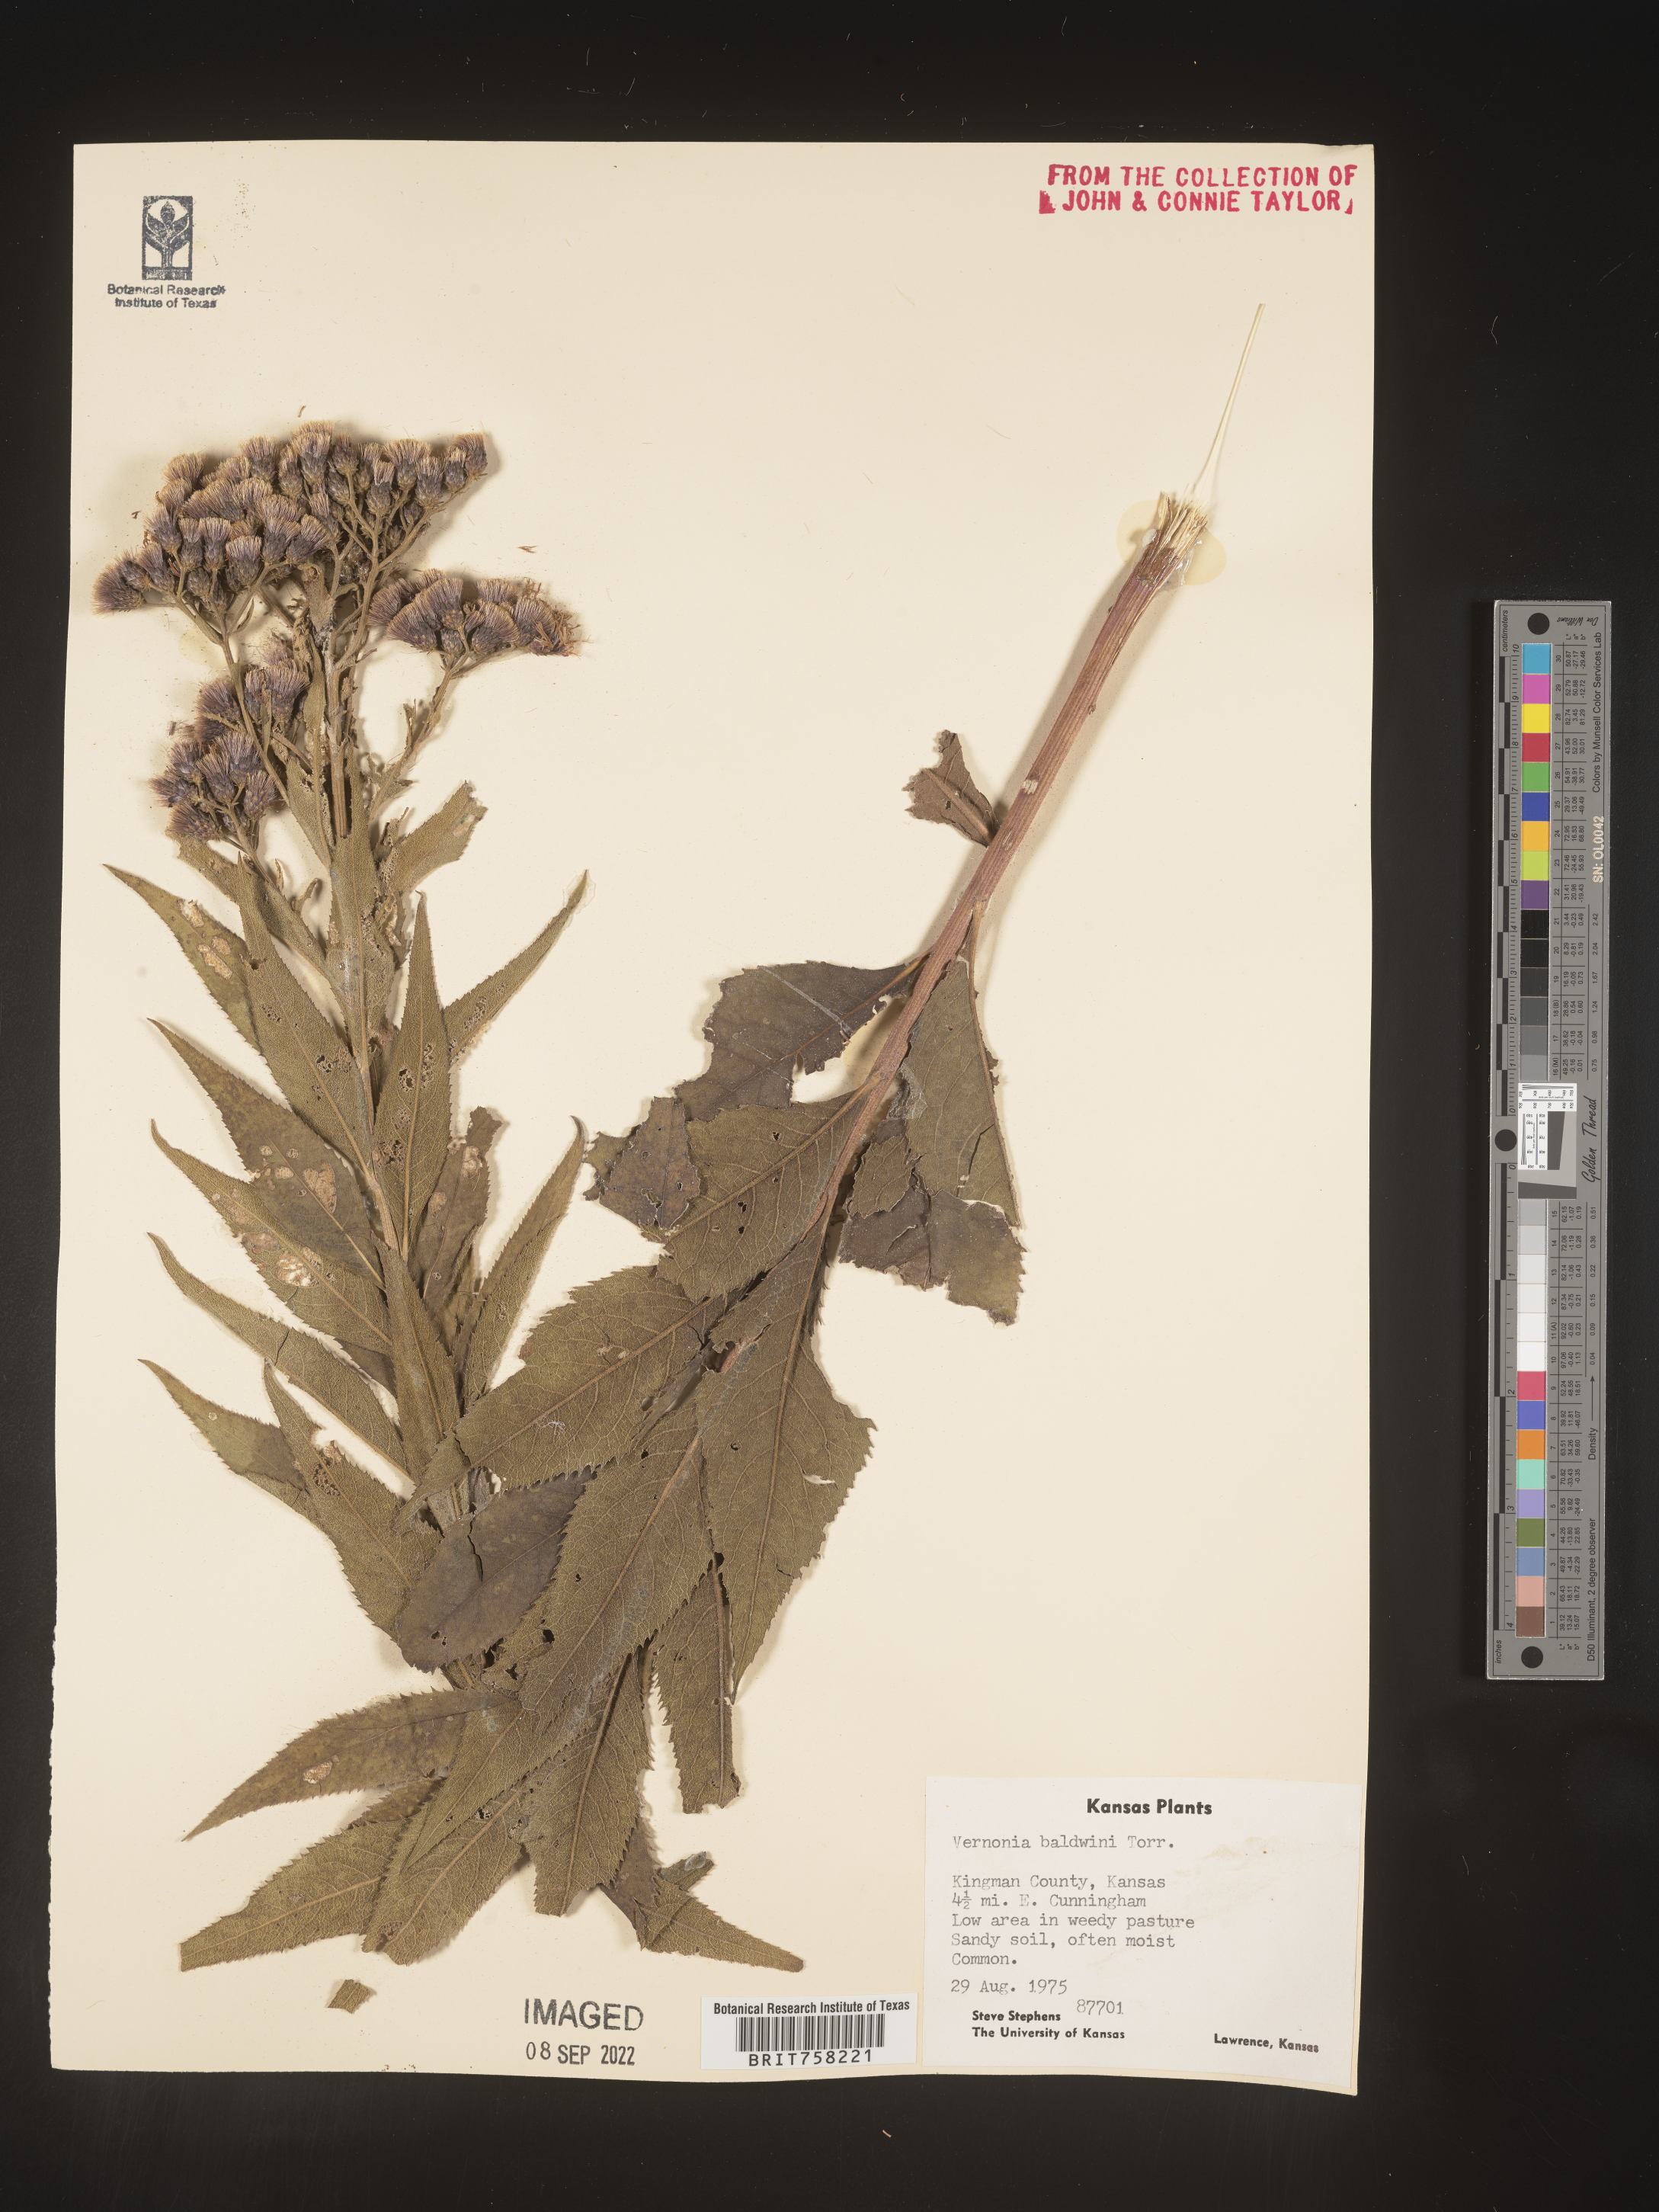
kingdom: Plantae
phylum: Tracheophyta
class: Magnoliopsida
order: Asterales
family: Asteraceae
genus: Vernonia
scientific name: Vernonia baldwinii
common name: Western ironweed
